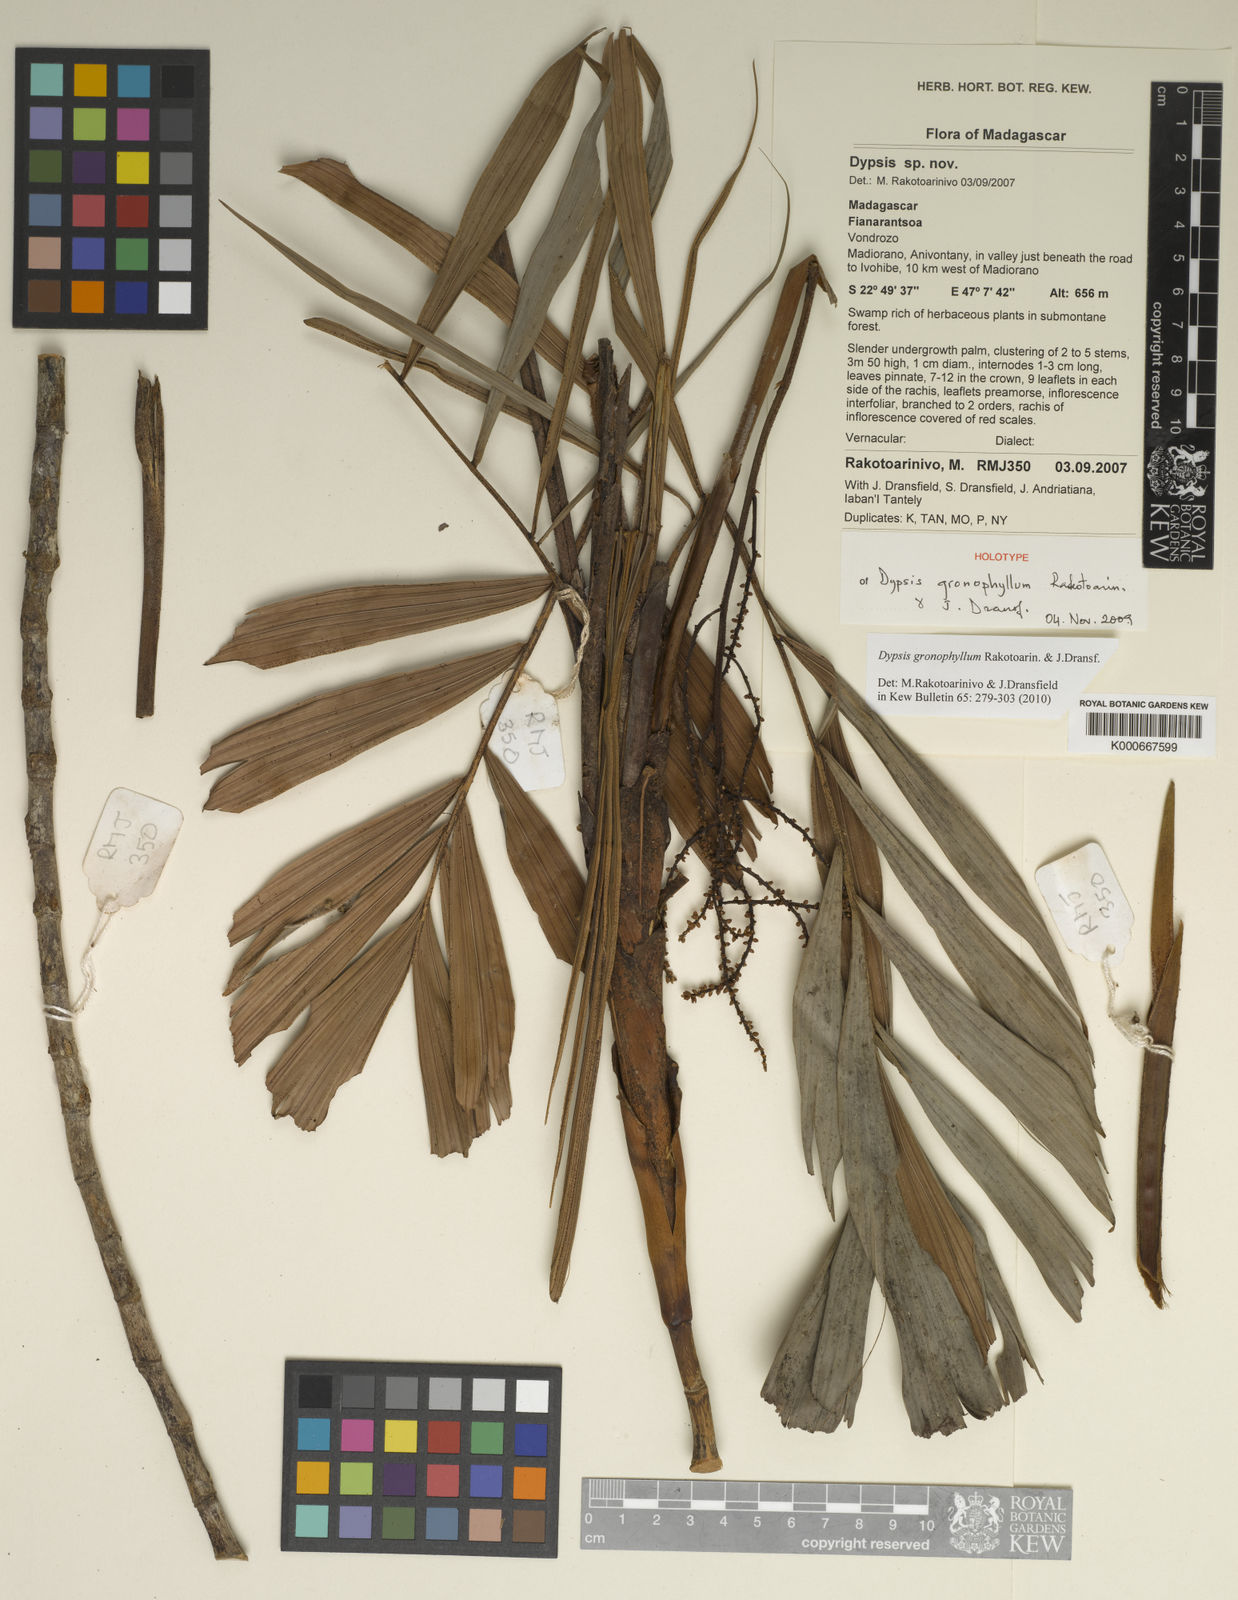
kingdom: Plantae
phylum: Tracheophyta
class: Liliopsida
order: Arecales
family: Arecaceae
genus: Dypsis
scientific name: Dypsis gronophyllum
